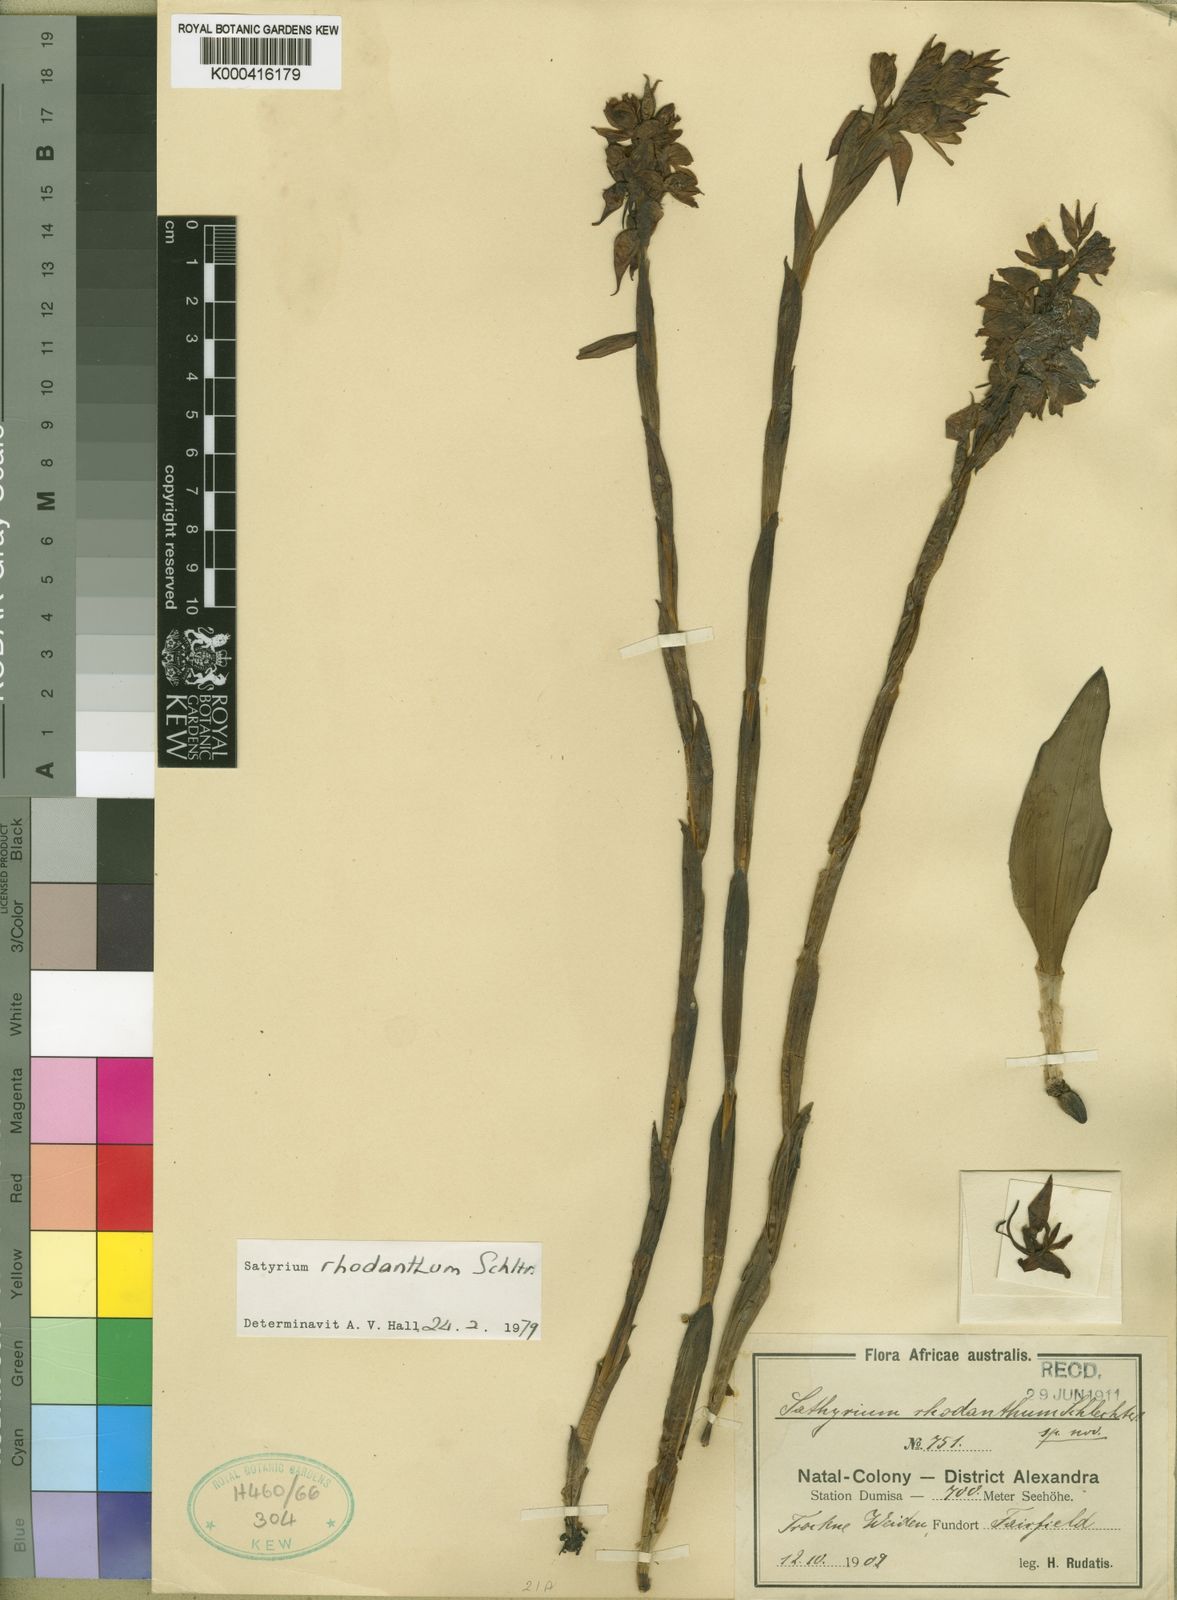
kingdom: Plantae
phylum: Tracheophyta
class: Liliopsida
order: Asparagales
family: Orchidaceae
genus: Satyrium
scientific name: Satyrium rhodanthum
